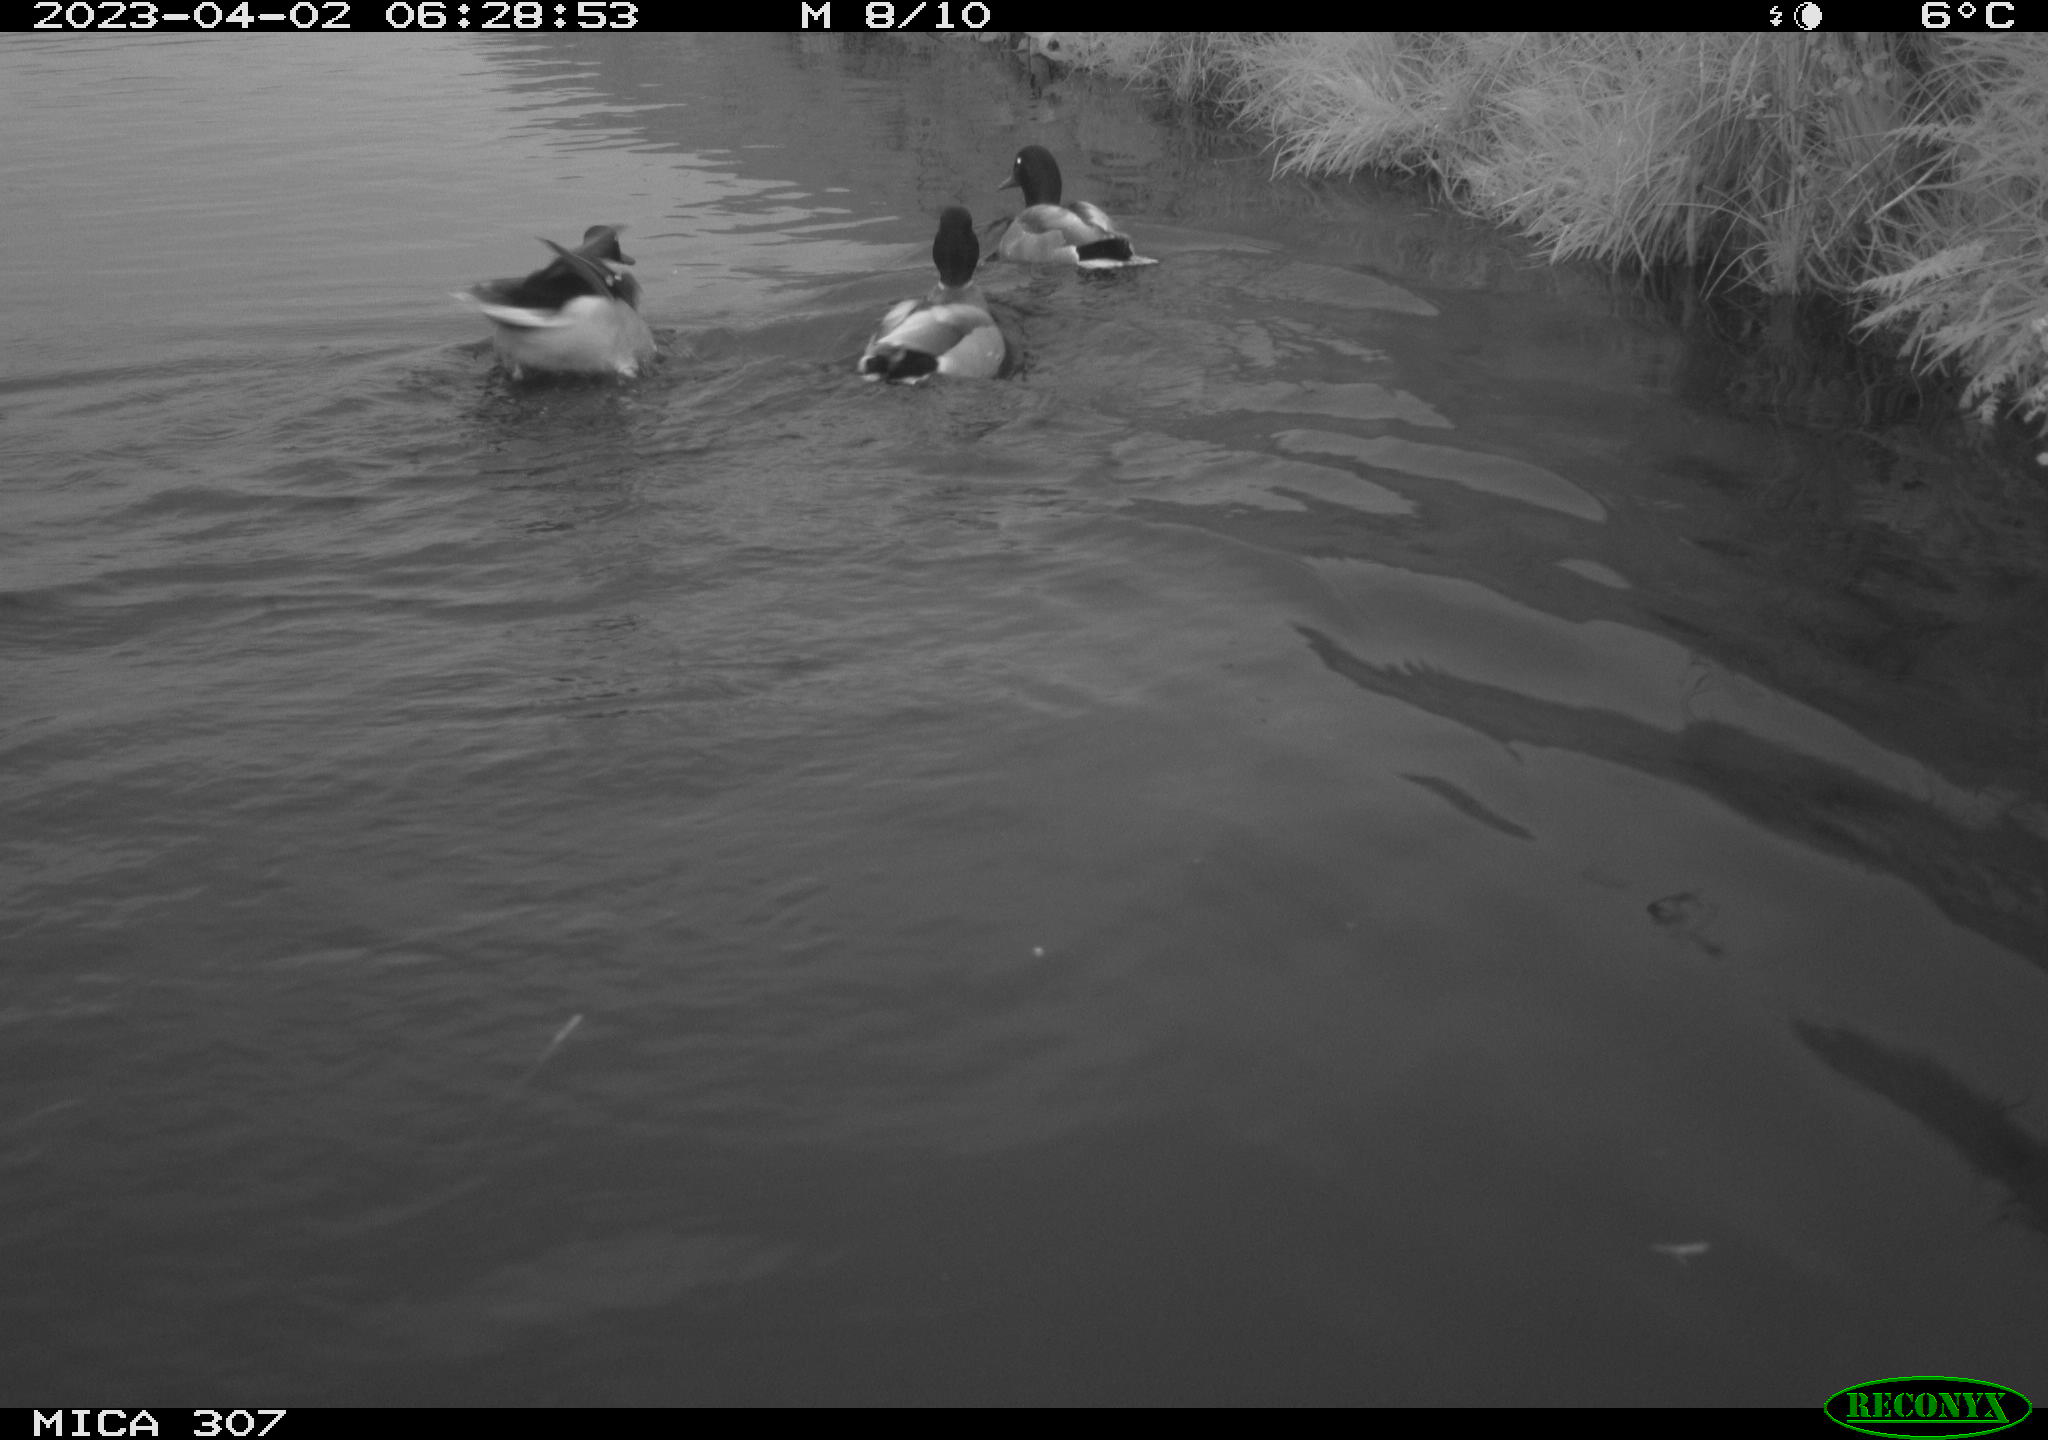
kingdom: Animalia
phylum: Chordata
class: Aves
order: Anseriformes
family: Anatidae
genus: Anas
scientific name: Anas
